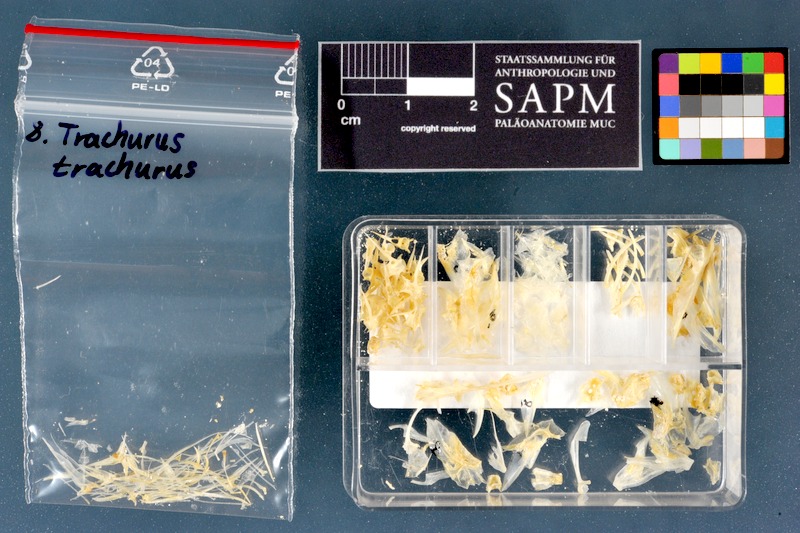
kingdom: Animalia
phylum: Chordata
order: Perciformes
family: Carangidae
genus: Trachurus
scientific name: Trachurus trachurus
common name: Horse mackerel
